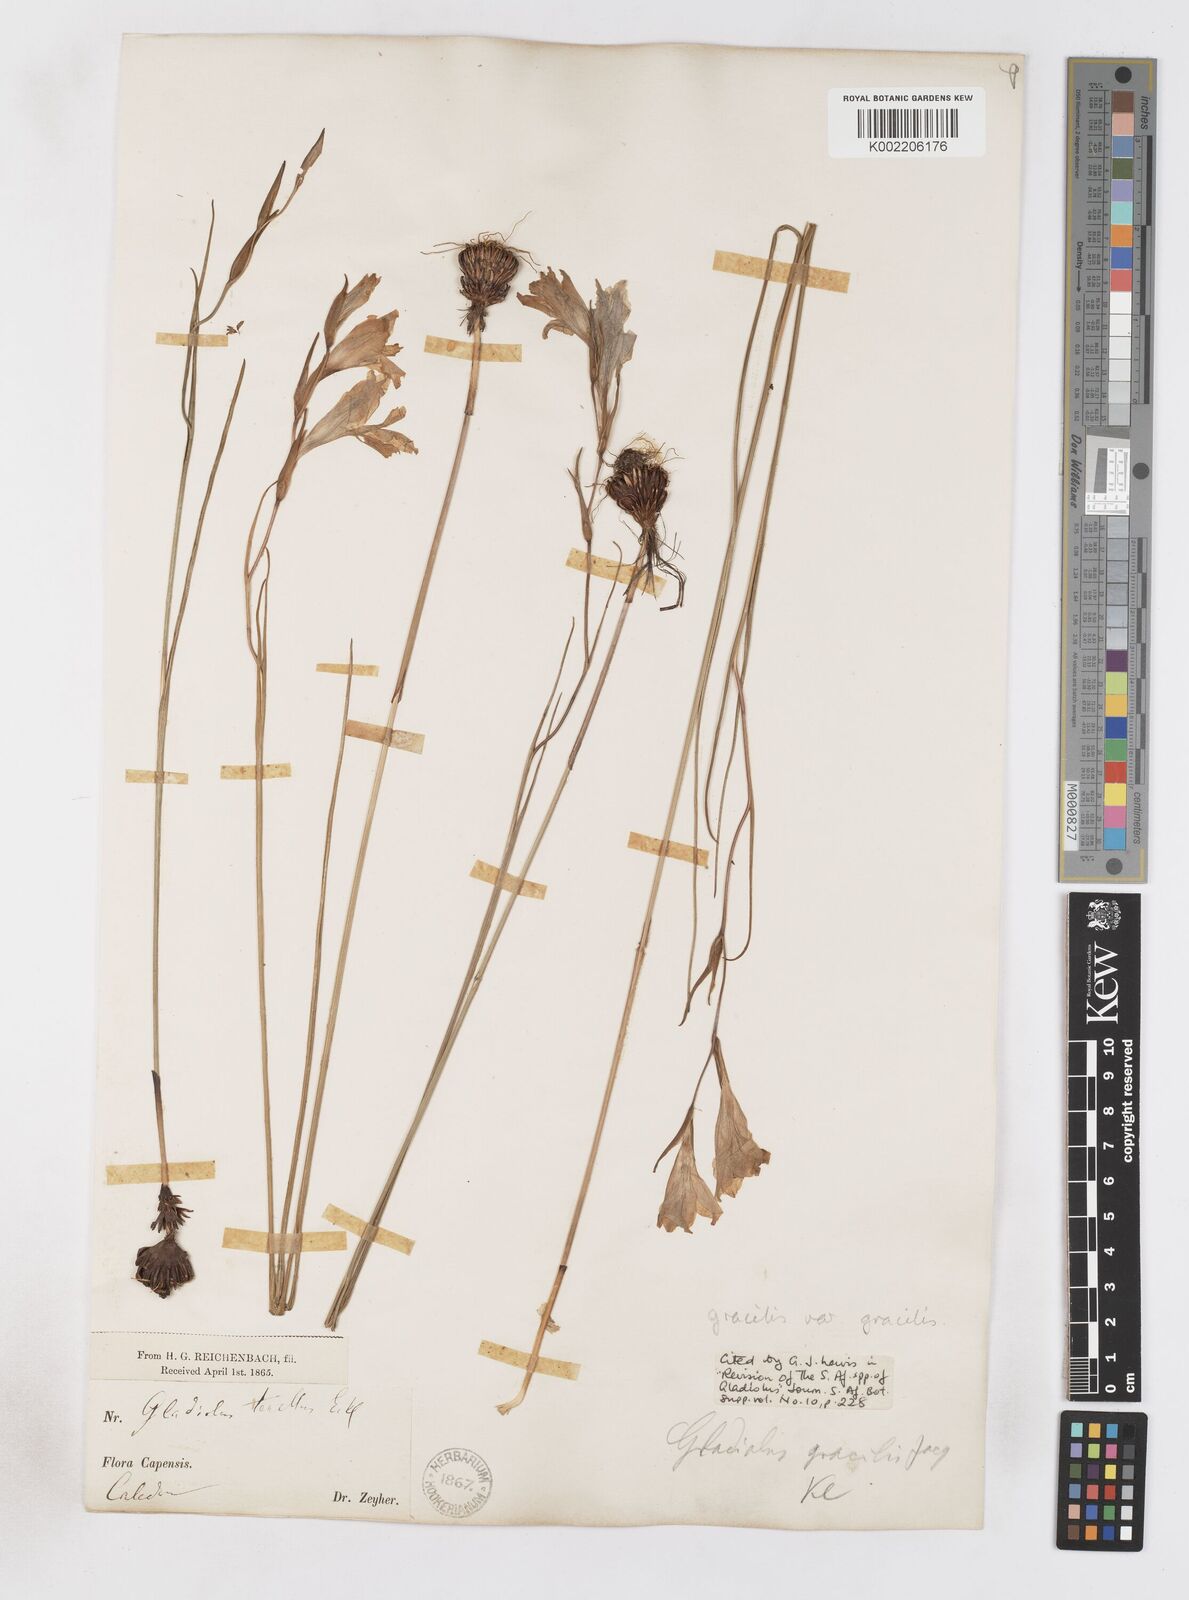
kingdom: Plantae
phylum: Tracheophyta
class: Liliopsida
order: Asparagales
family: Iridaceae
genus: Gladiolus
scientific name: Gladiolus gracilis
